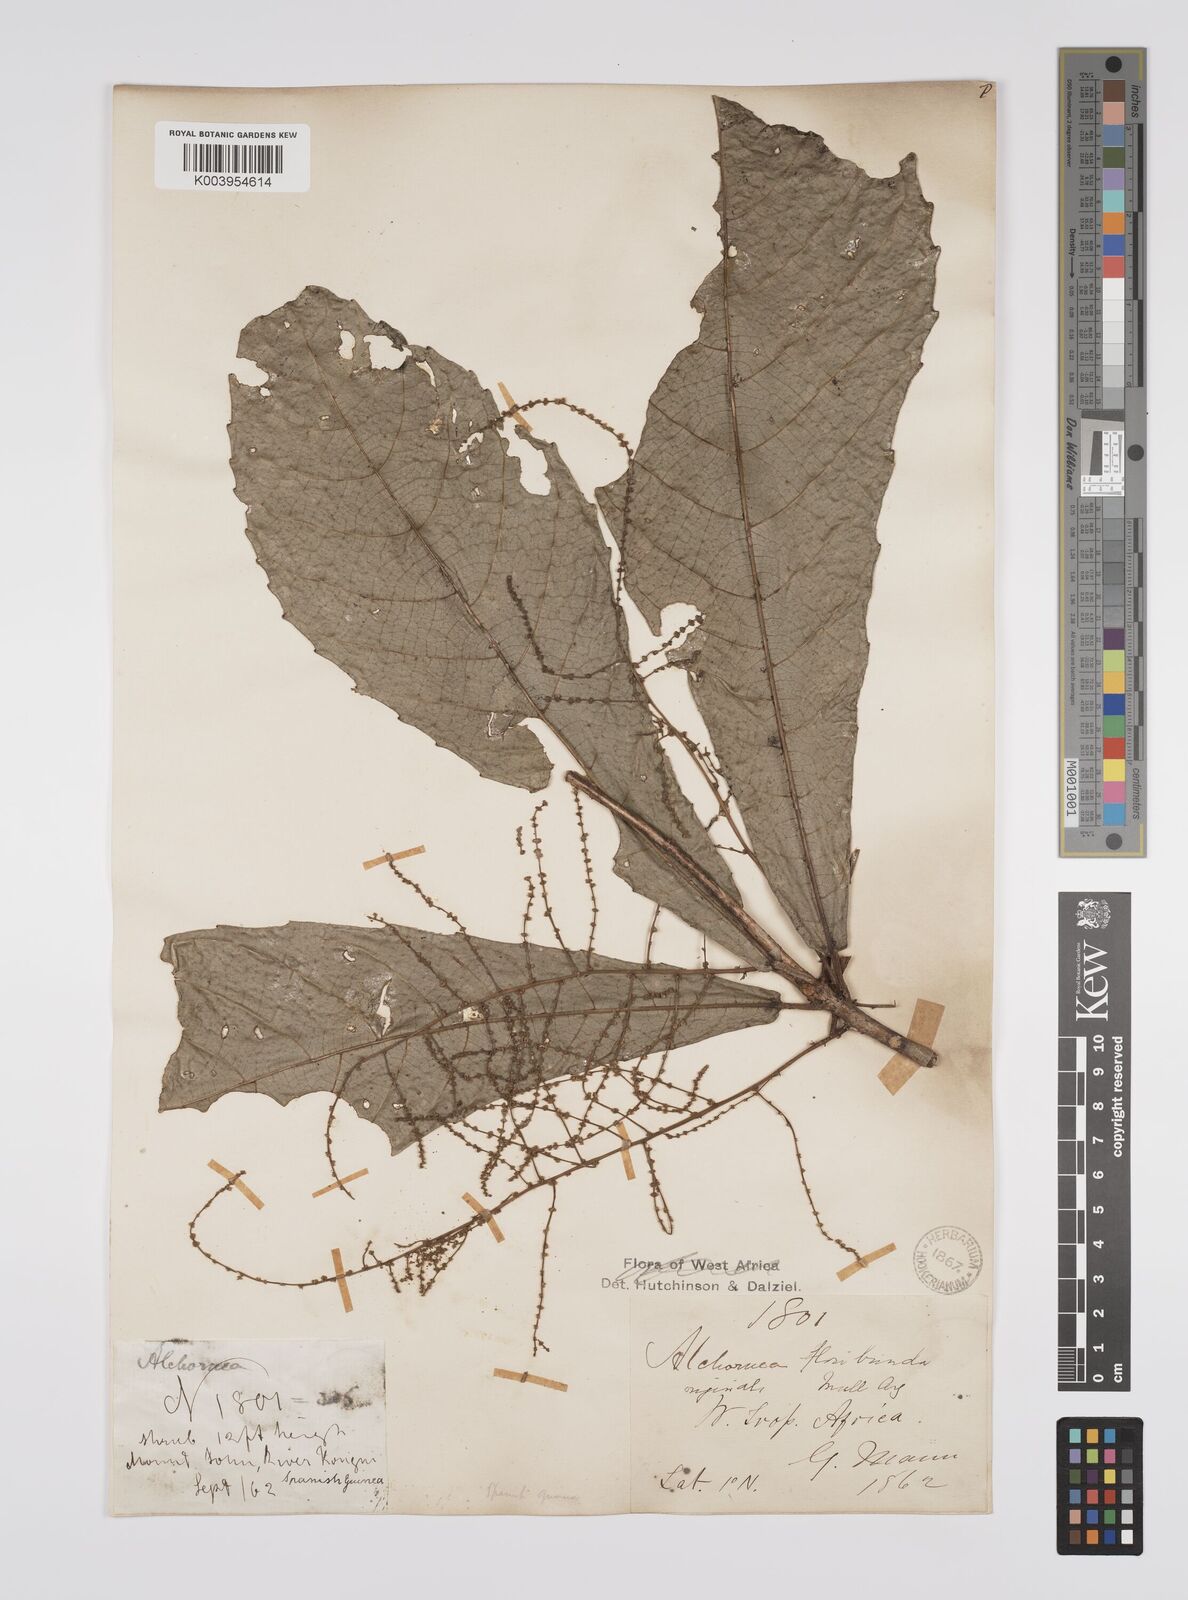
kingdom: Plantae
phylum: Tracheophyta
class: Magnoliopsida
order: Malpighiales
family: Euphorbiaceae
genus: Alchornea
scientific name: Alchornea floribunda
